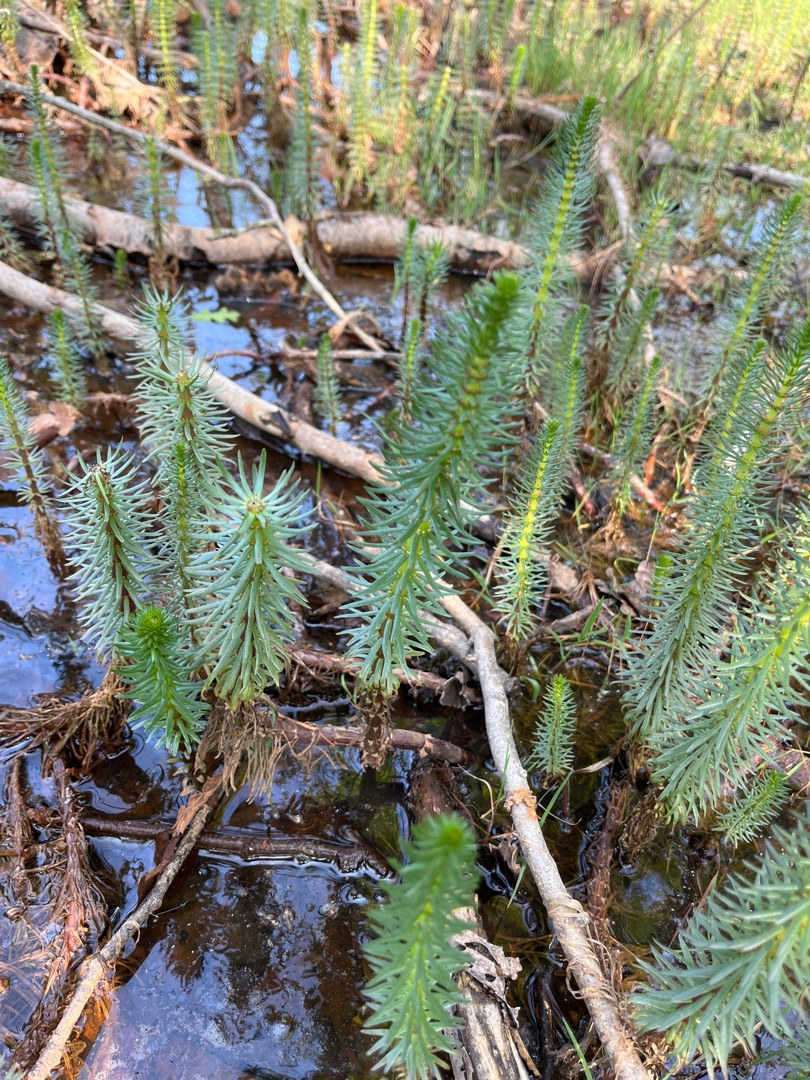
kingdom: Plantae
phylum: Tracheophyta
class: Magnoliopsida
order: Lamiales
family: Plantaginaceae
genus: Hippuris
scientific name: Hippuris vulgaris
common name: Vandspir
